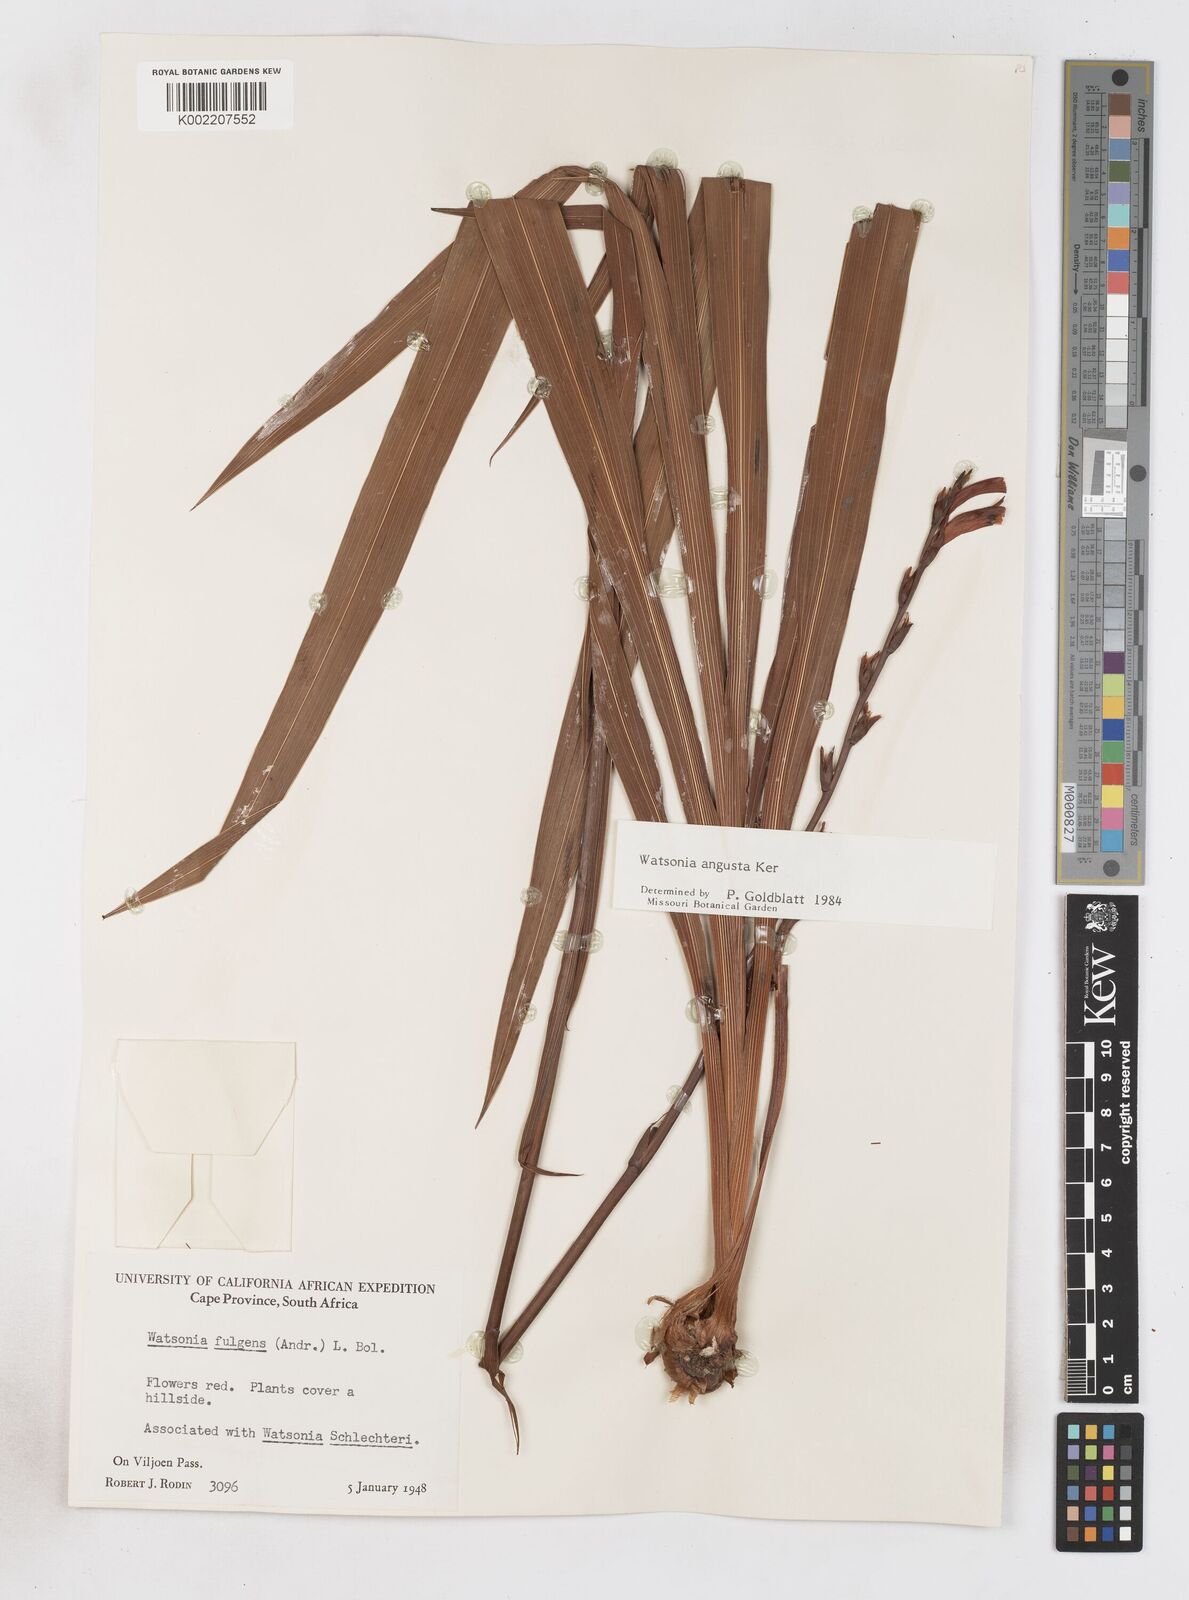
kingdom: Plantae
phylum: Tracheophyta
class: Liliopsida
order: Asparagales
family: Iridaceae
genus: Watsonia
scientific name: Watsonia angusta
